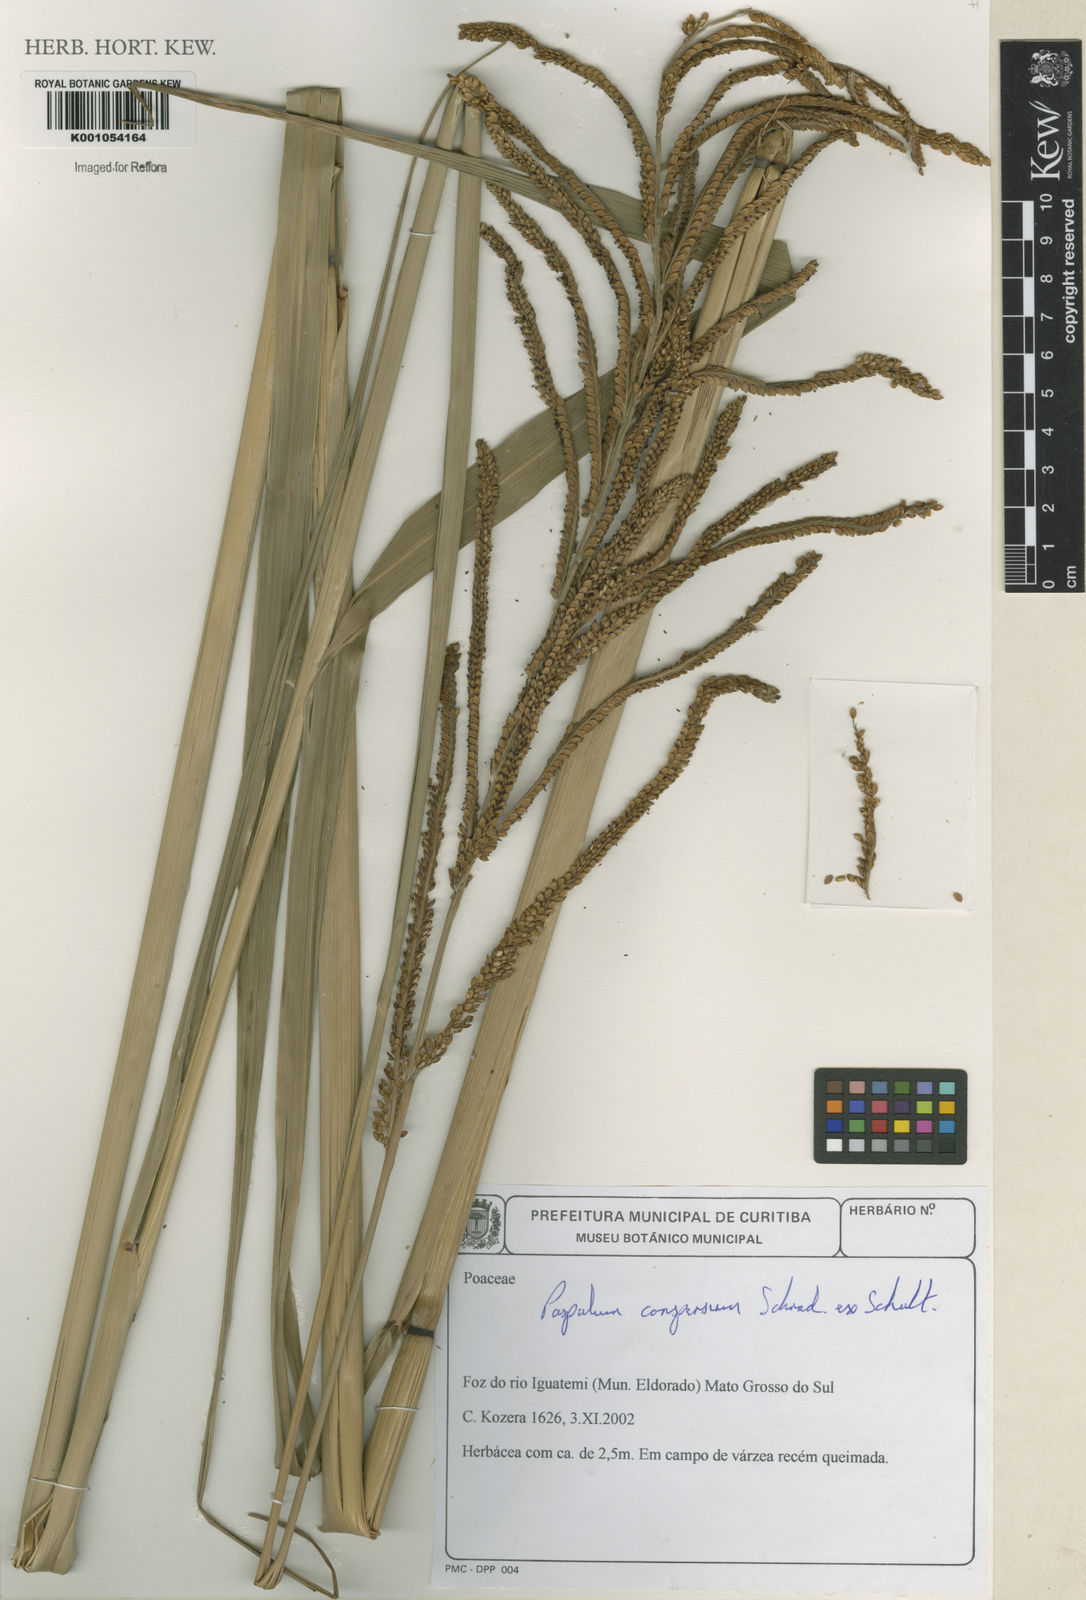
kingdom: Plantae
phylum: Tracheophyta
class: Liliopsida
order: Poales
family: Poaceae
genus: Paspalum
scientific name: Paspalum conspersum
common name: Scattered paspalum
